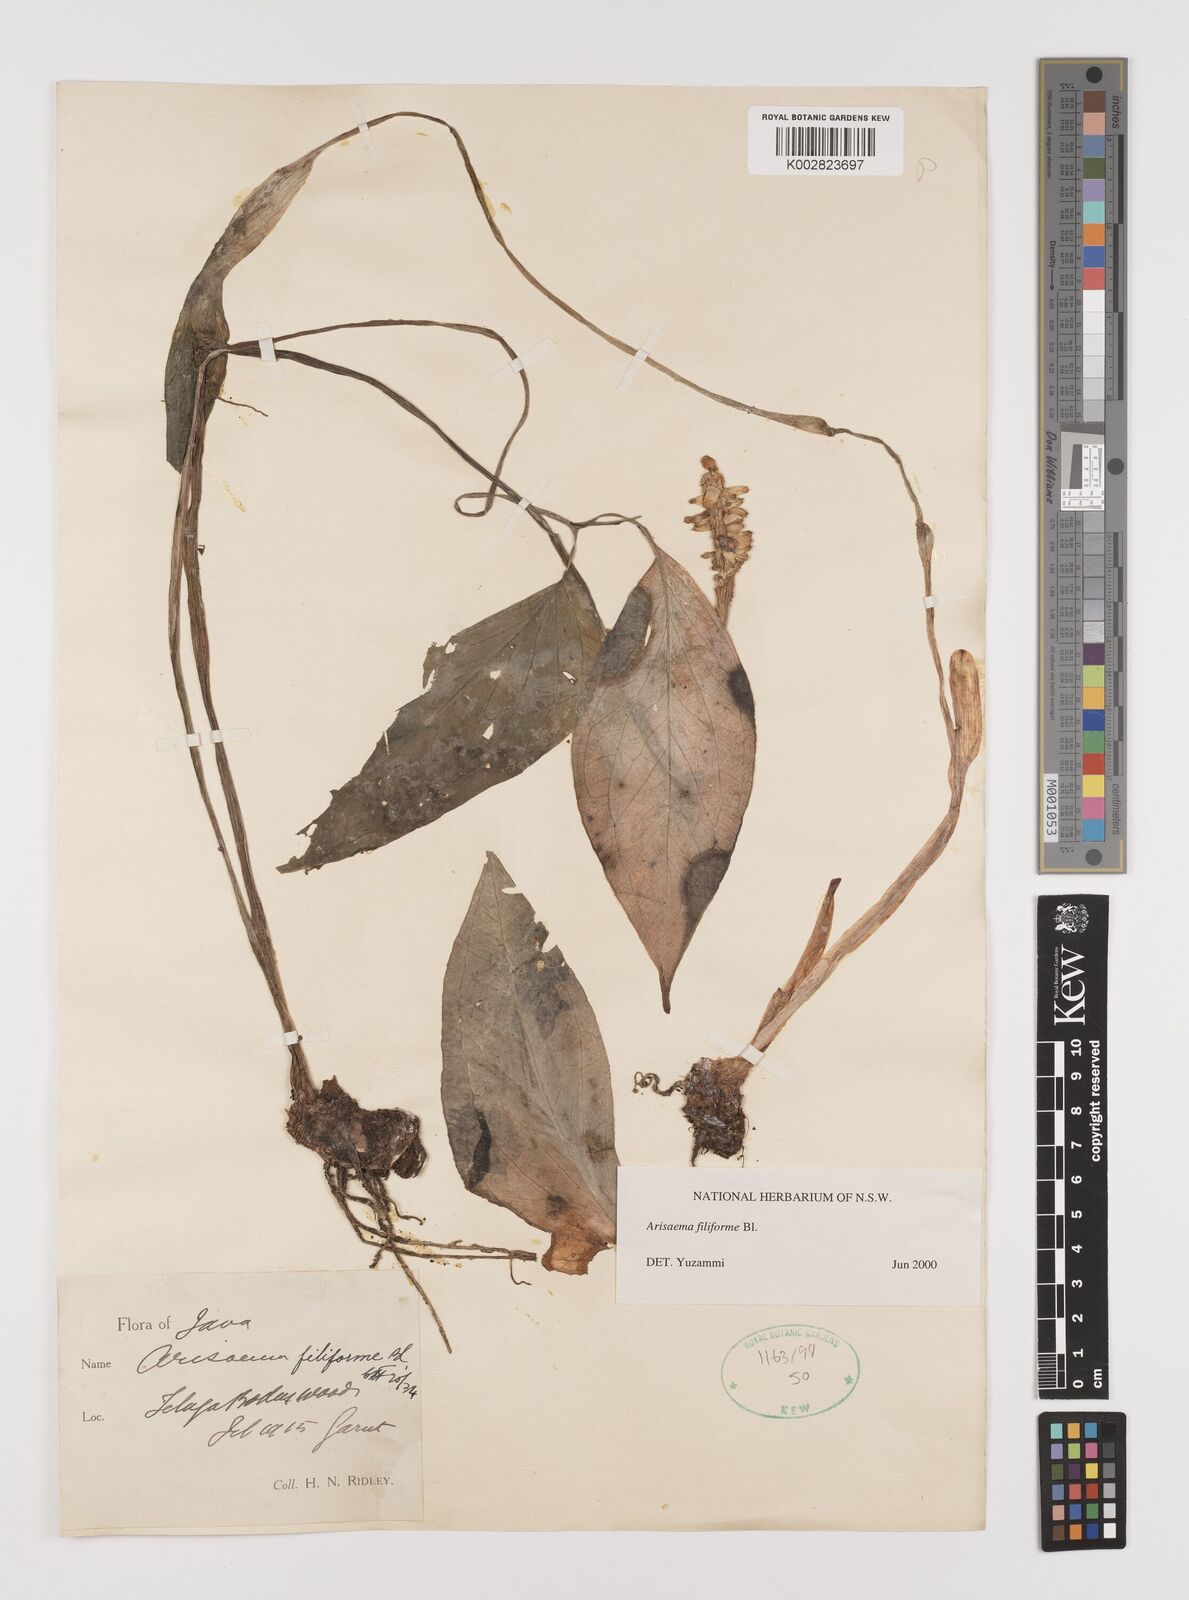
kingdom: Plantae
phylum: Tracheophyta
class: Liliopsida
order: Alismatales
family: Araceae
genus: Arisaema
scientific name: Arisaema filiforme
